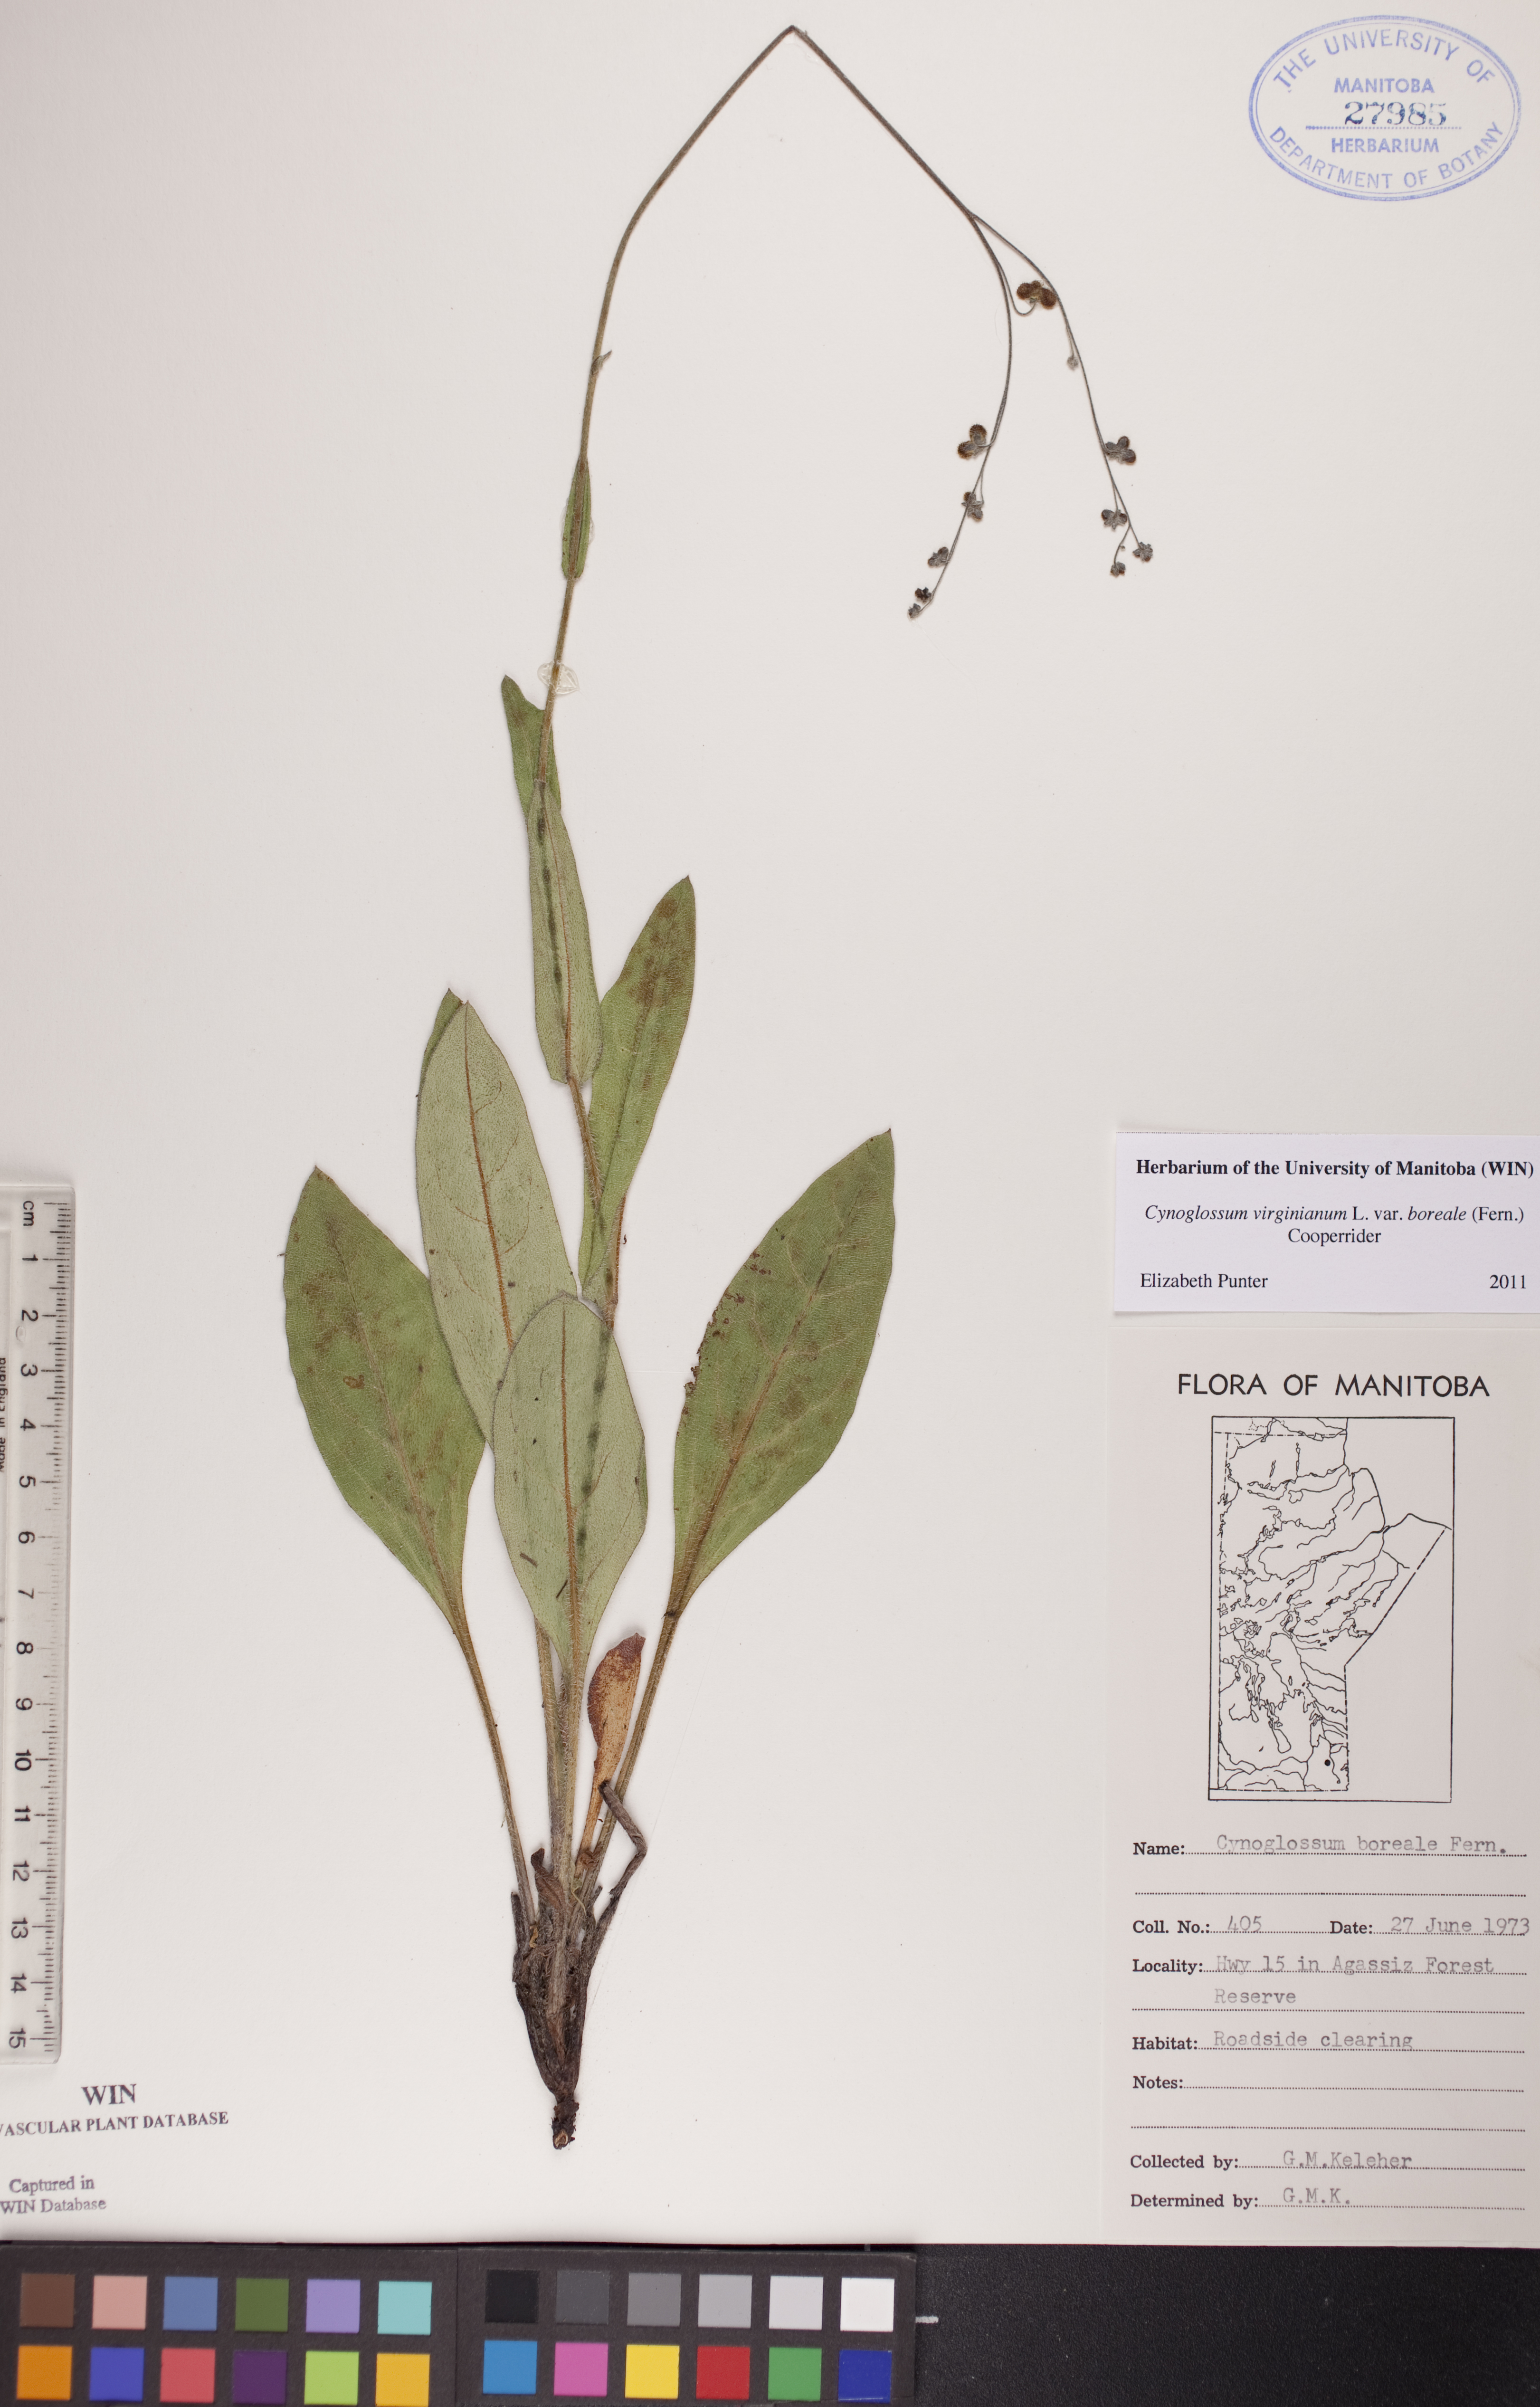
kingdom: Plantae
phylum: Tracheophyta
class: Magnoliopsida
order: Boraginales
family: Boraginaceae
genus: Andersonglossum
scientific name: Andersonglossum boreale
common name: Northern hound's-tongue
